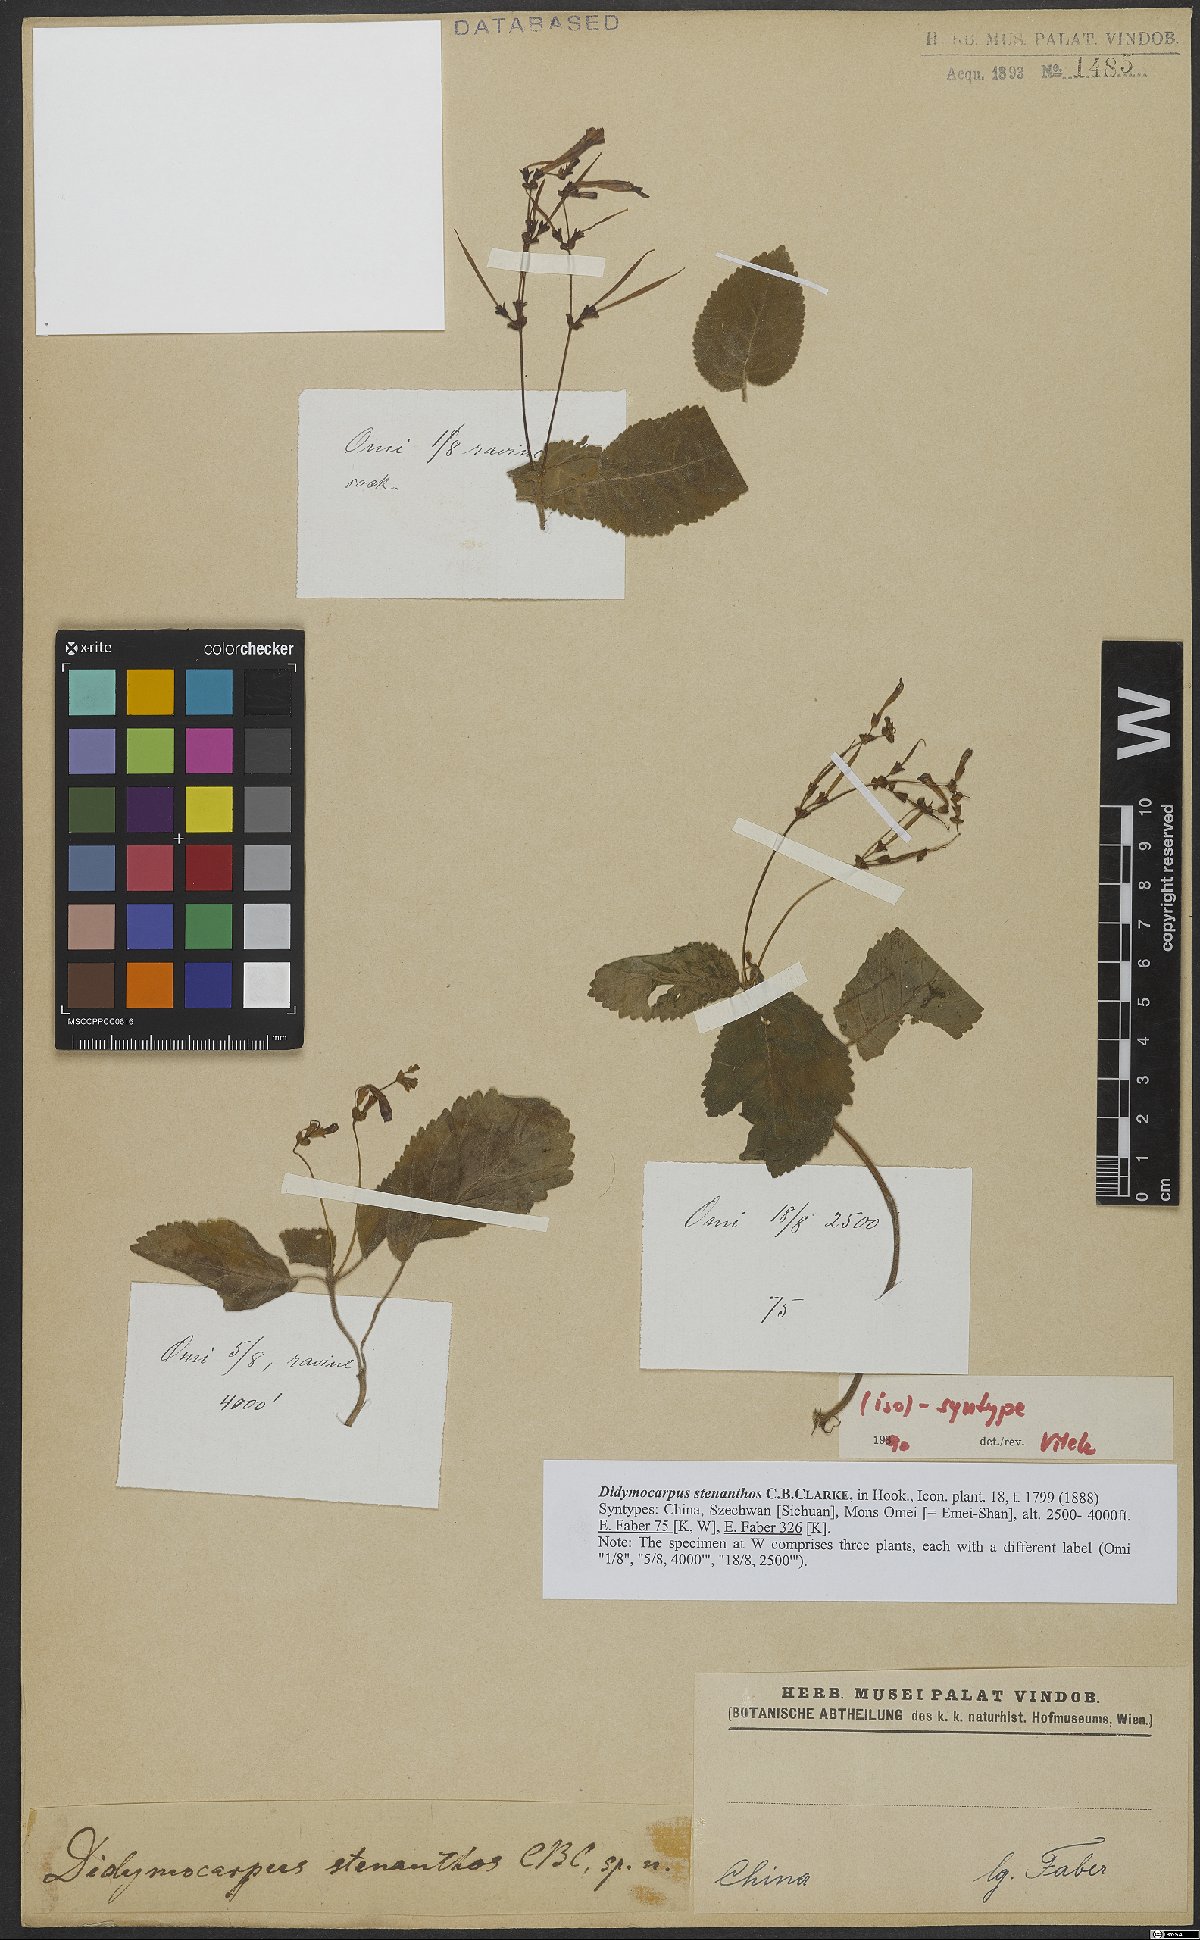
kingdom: Plantae
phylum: Tracheophyta
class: Magnoliopsida
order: Lamiales
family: Gesneriaceae
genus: Didymocarpus
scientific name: Didymocarpus stenanthos
